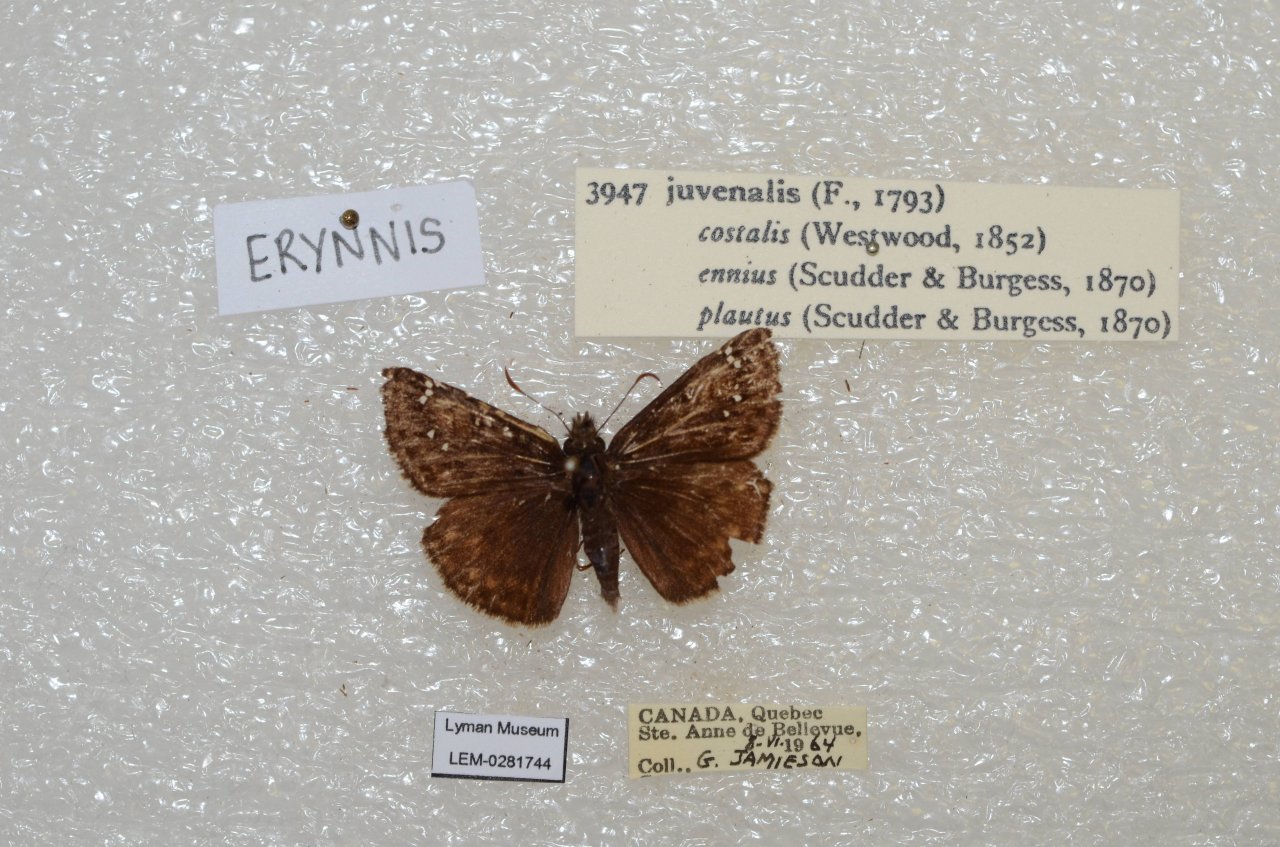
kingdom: Animalia
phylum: Arthropoda
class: Insecta
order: Lepidoptera
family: Hesperiidae
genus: Gesta
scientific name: Gesta
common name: Juvenal's Duskywing
